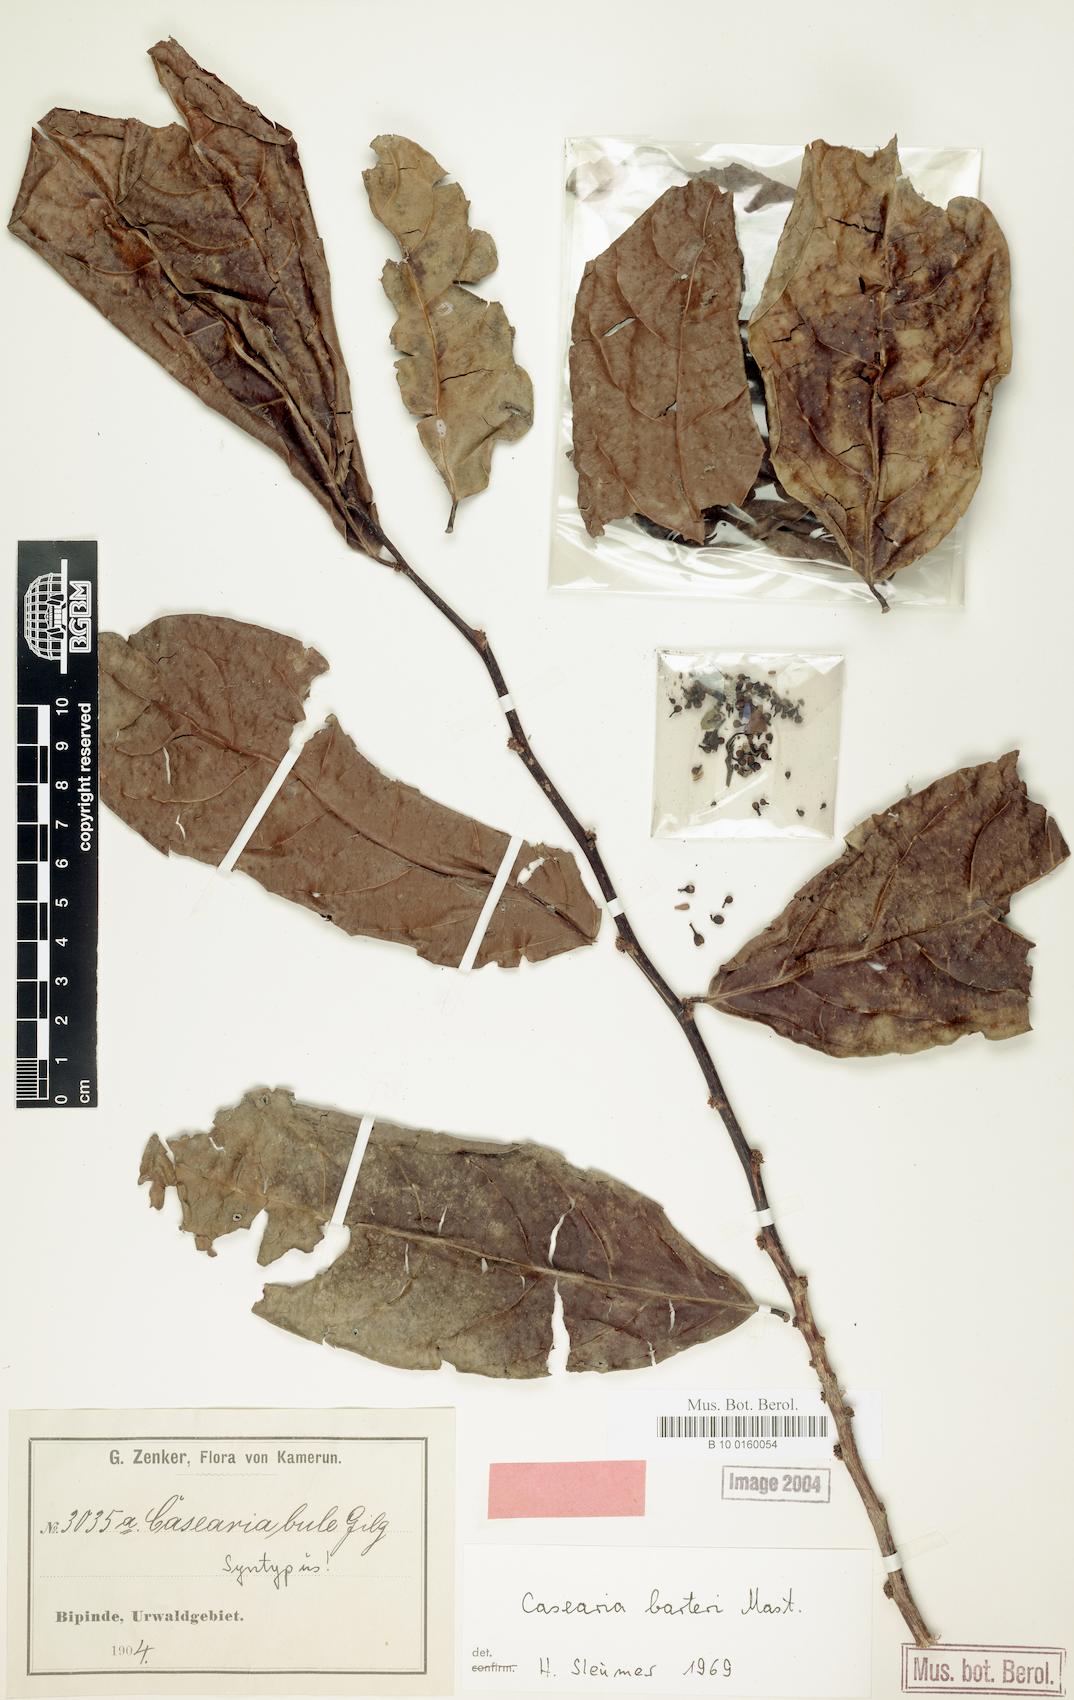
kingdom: Plantae
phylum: Tracheophyta
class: Magnoliopsida
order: Malpighiales
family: Salicaceae
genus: Casearia
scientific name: Casearia barteri
